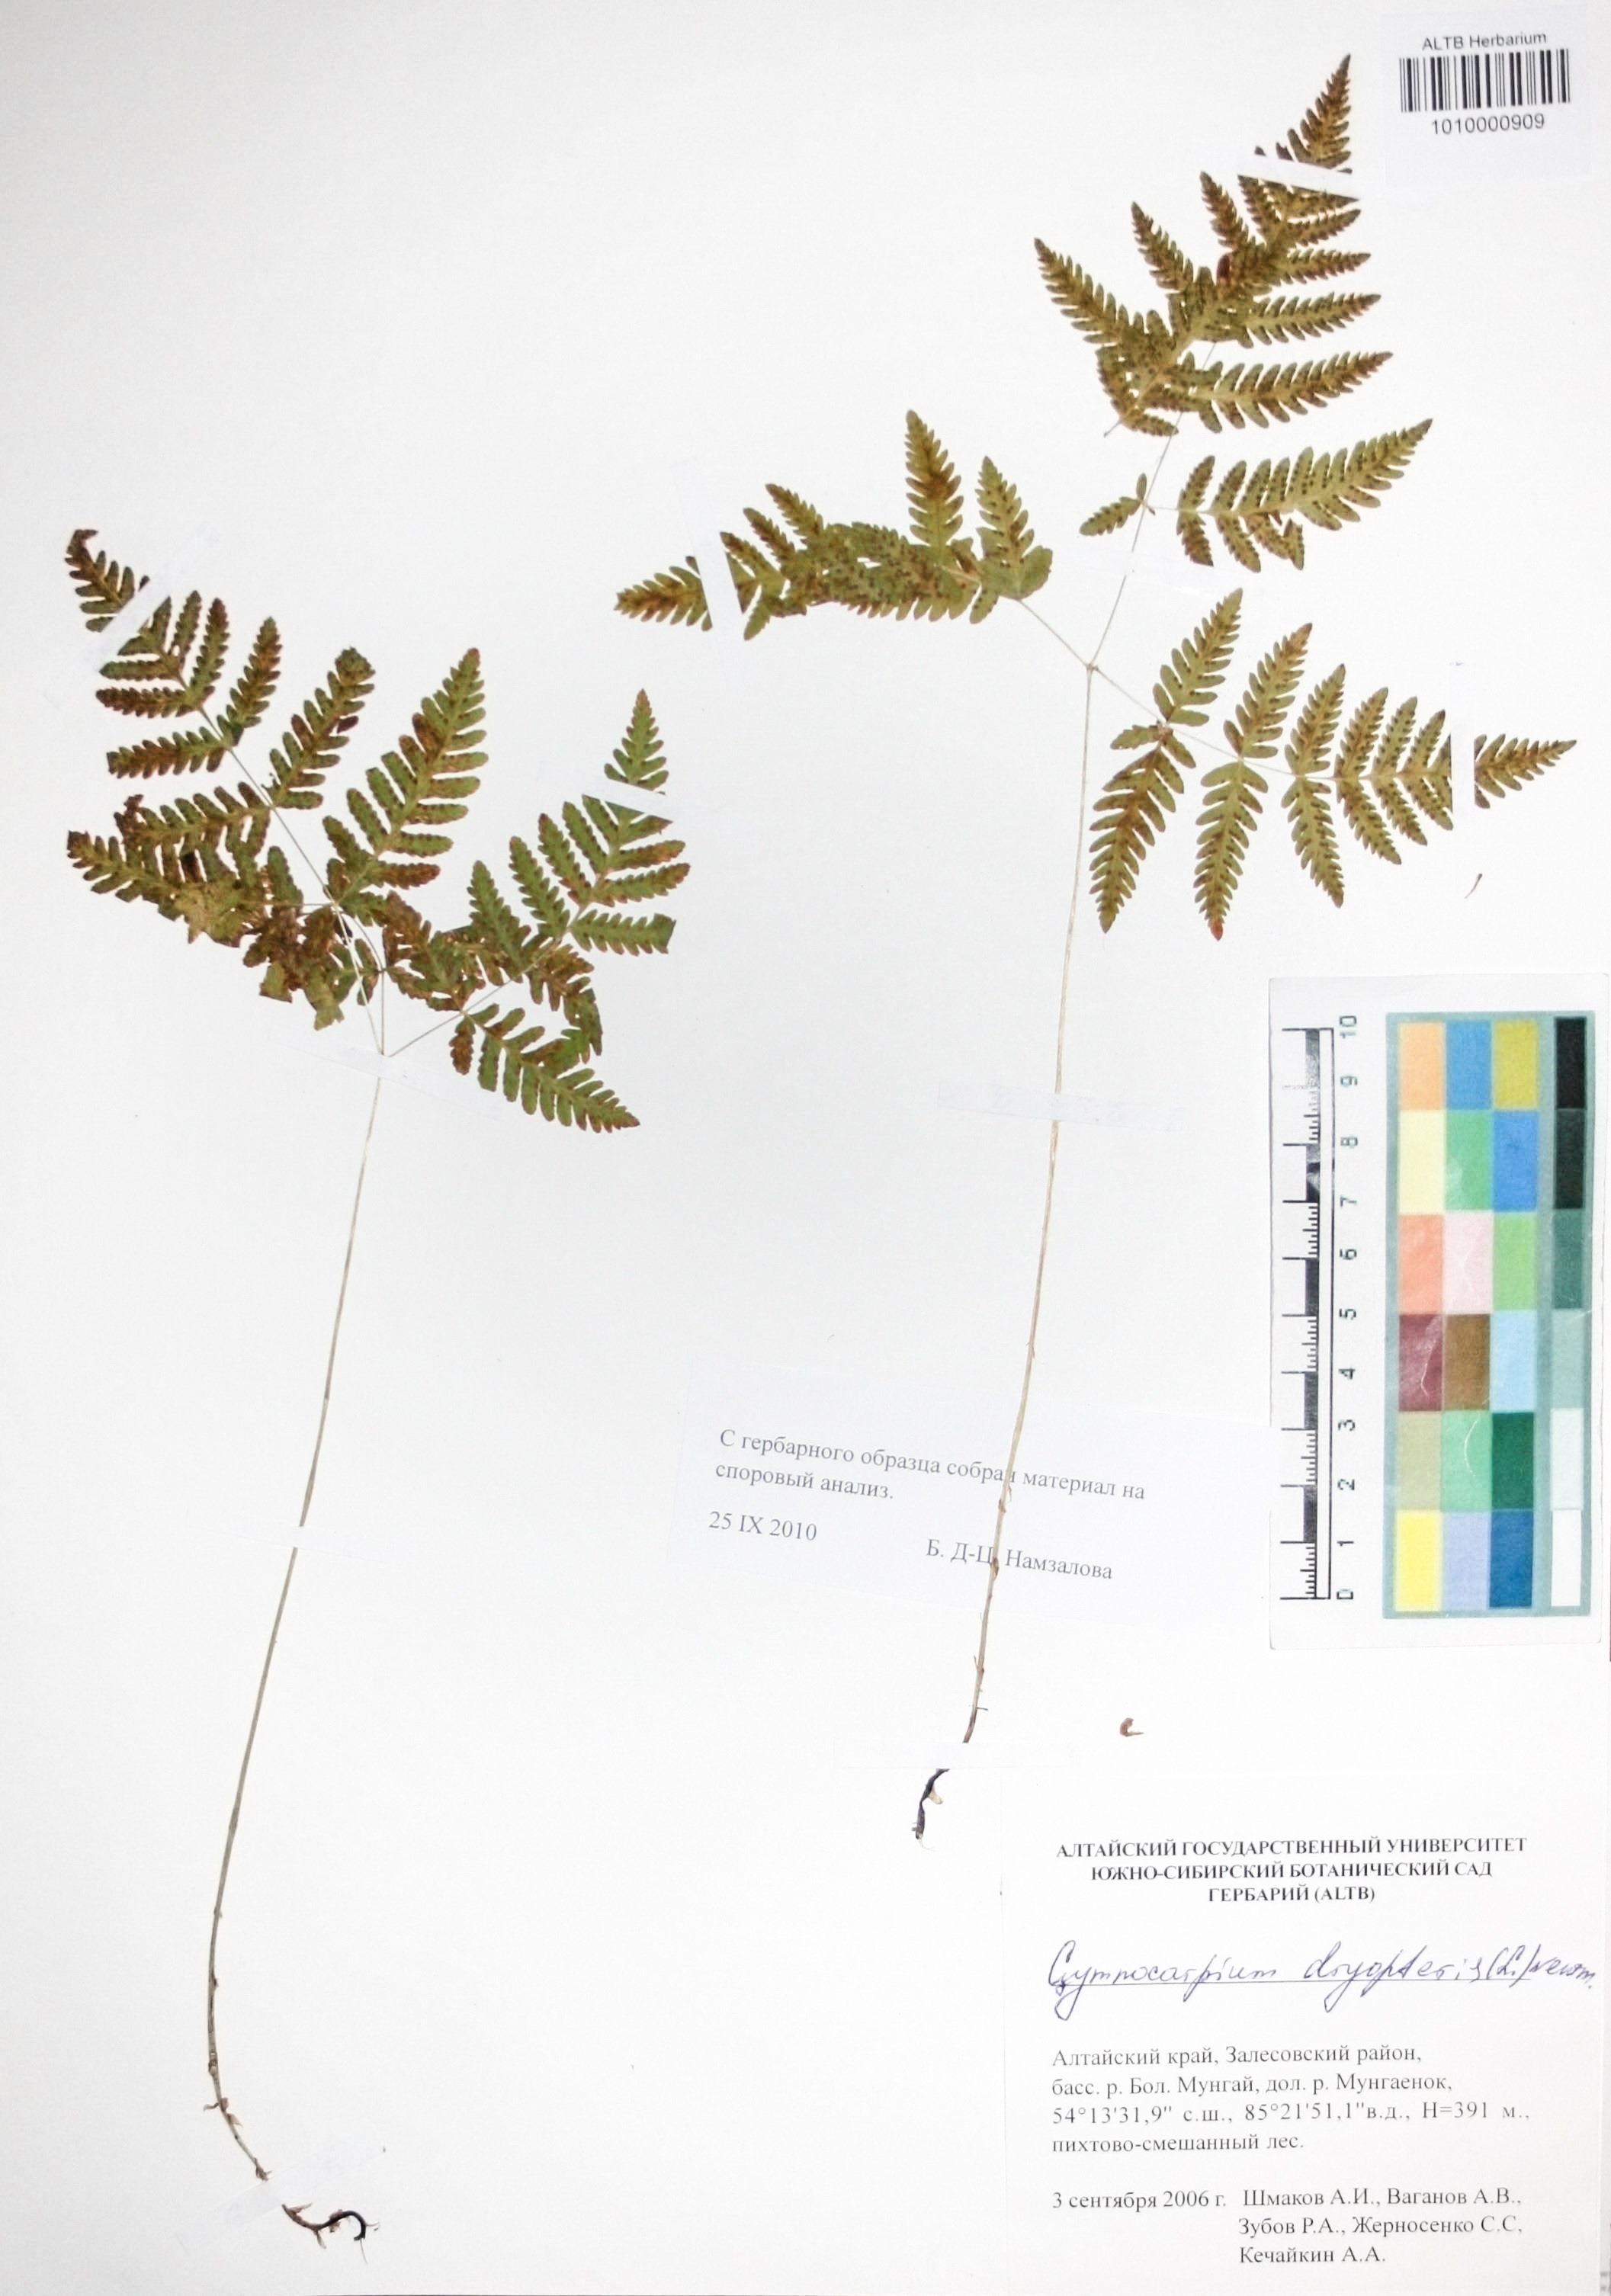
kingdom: Plantae
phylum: Tracheophyta
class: Polypodiopsida
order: Polypodiales
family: Cystopteridaceae
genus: Gymnocarpium
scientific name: Gymnocarpium dryopteris
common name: Oak fern
